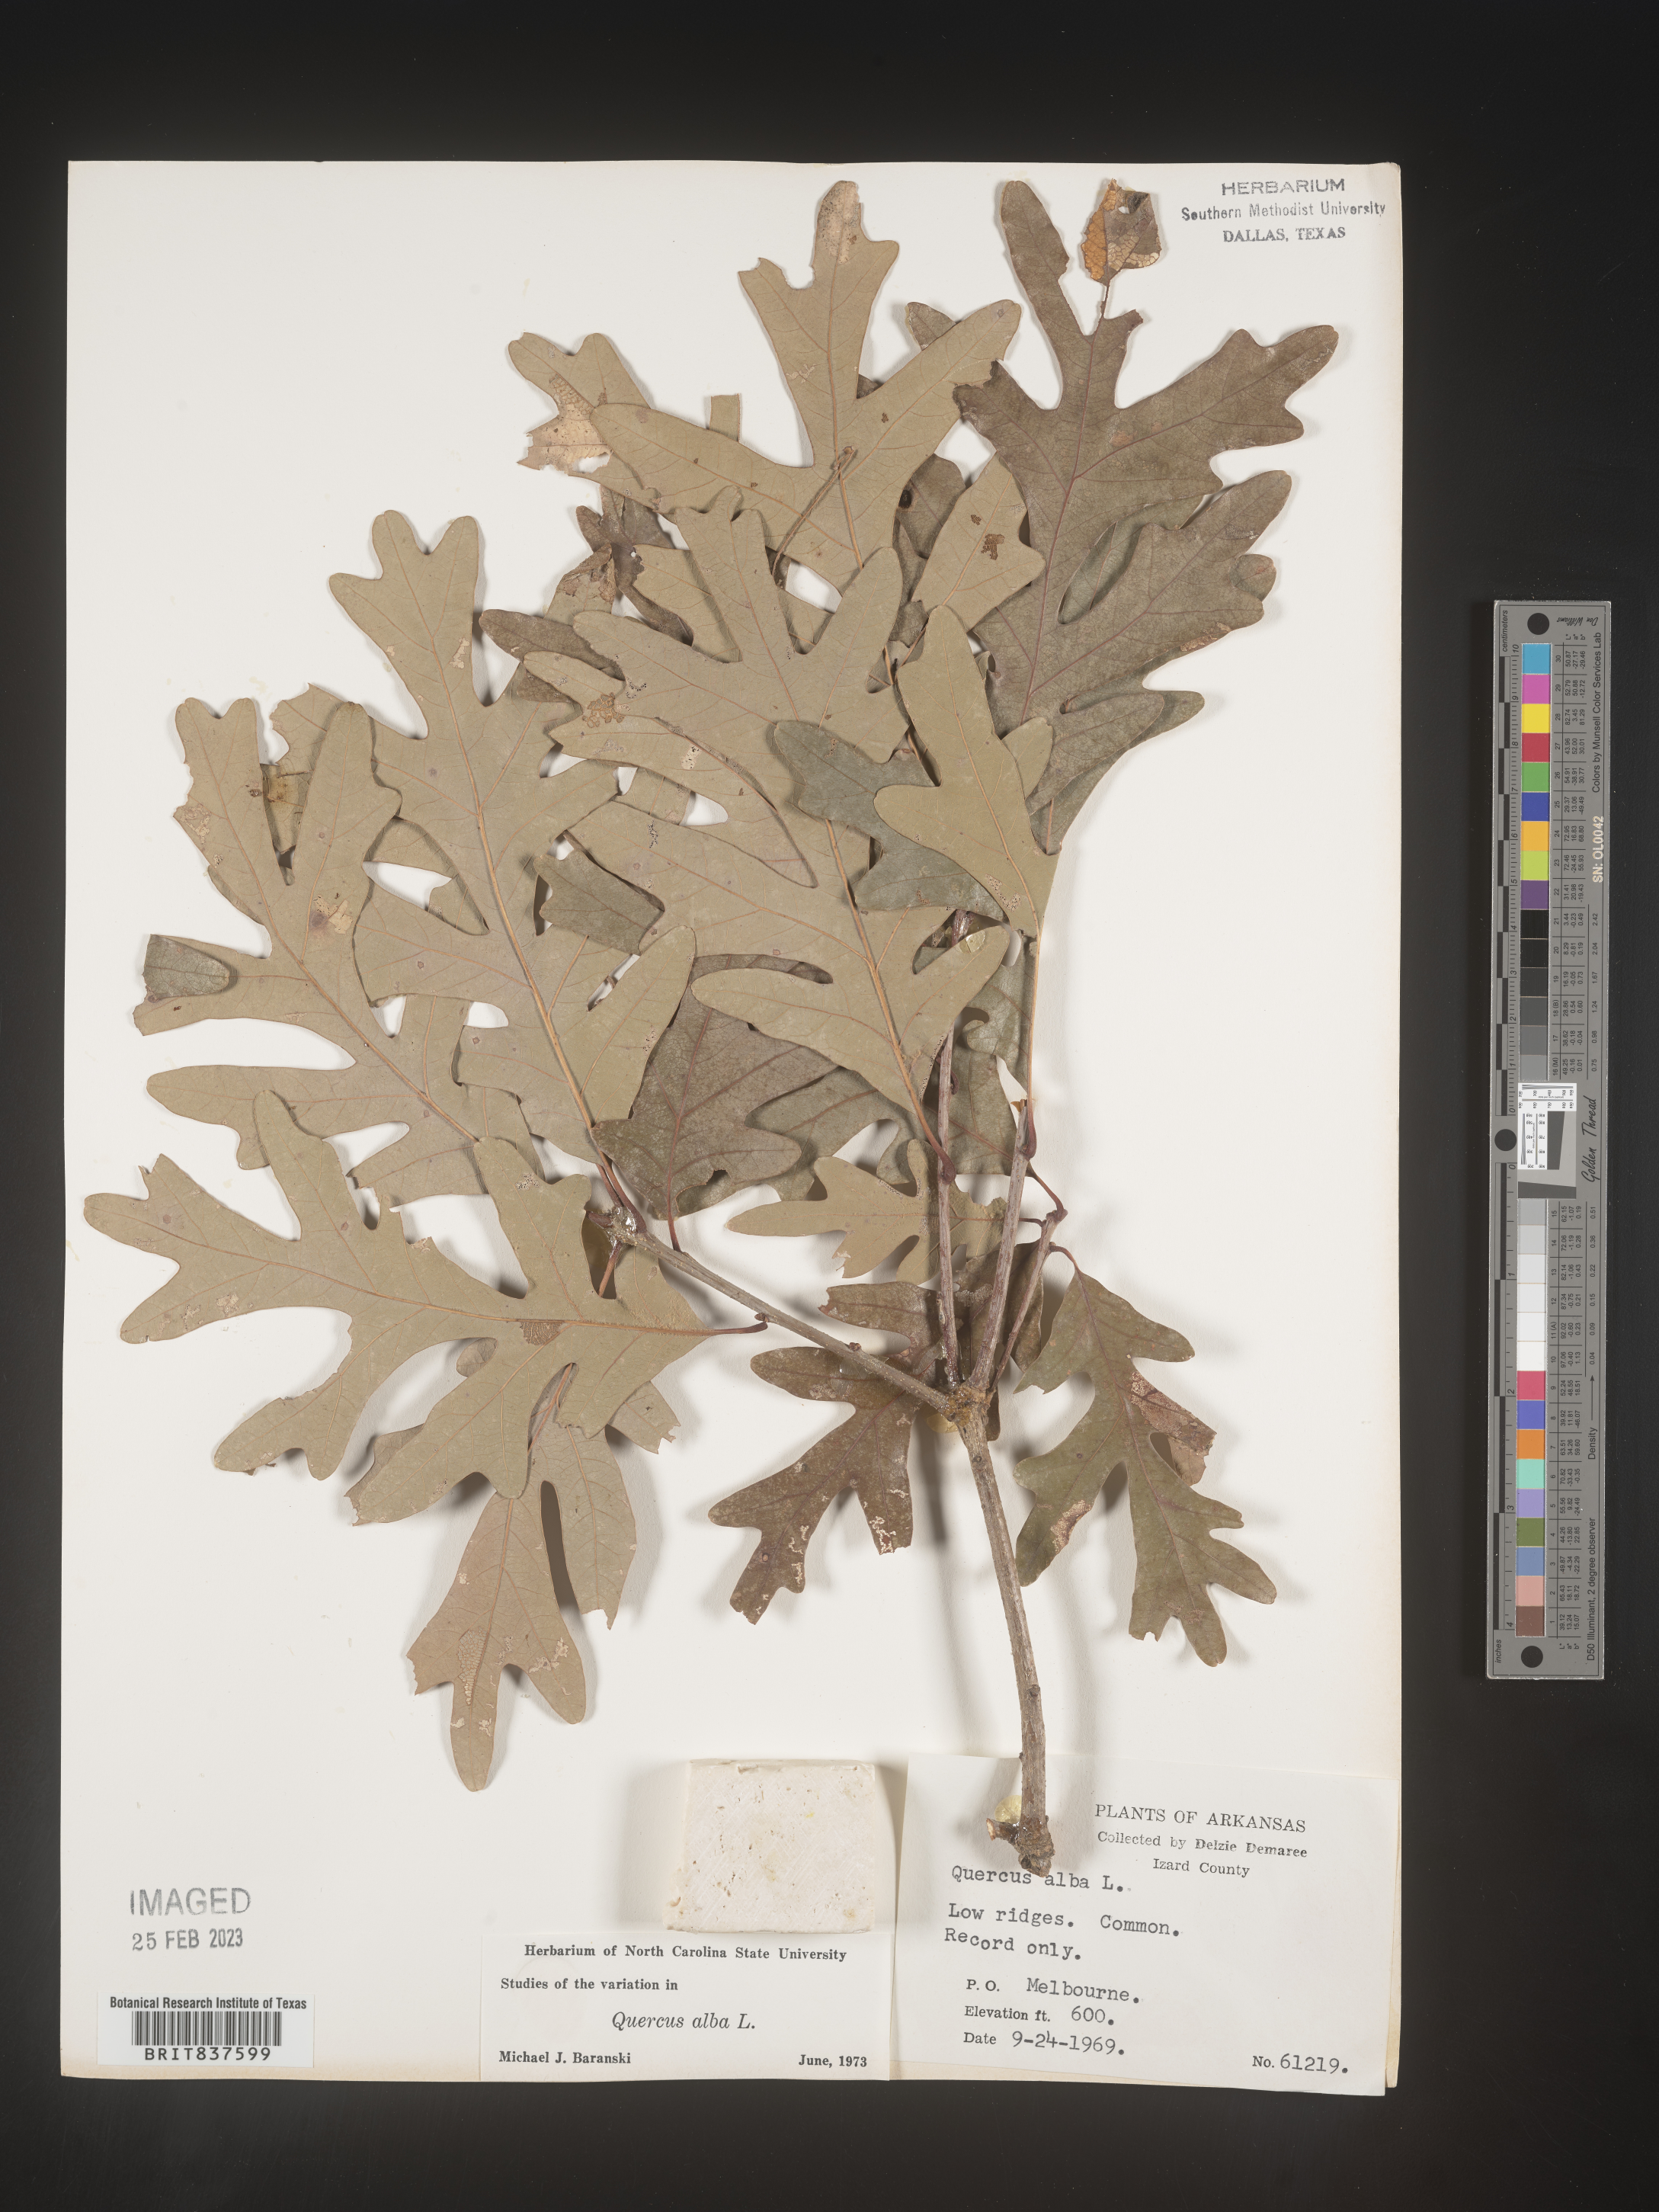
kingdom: Plantae
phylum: Tracheophyta
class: Magnoliopsida
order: Fagales
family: Fagaceae
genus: Quercus
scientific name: Quercus alba
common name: White oak
